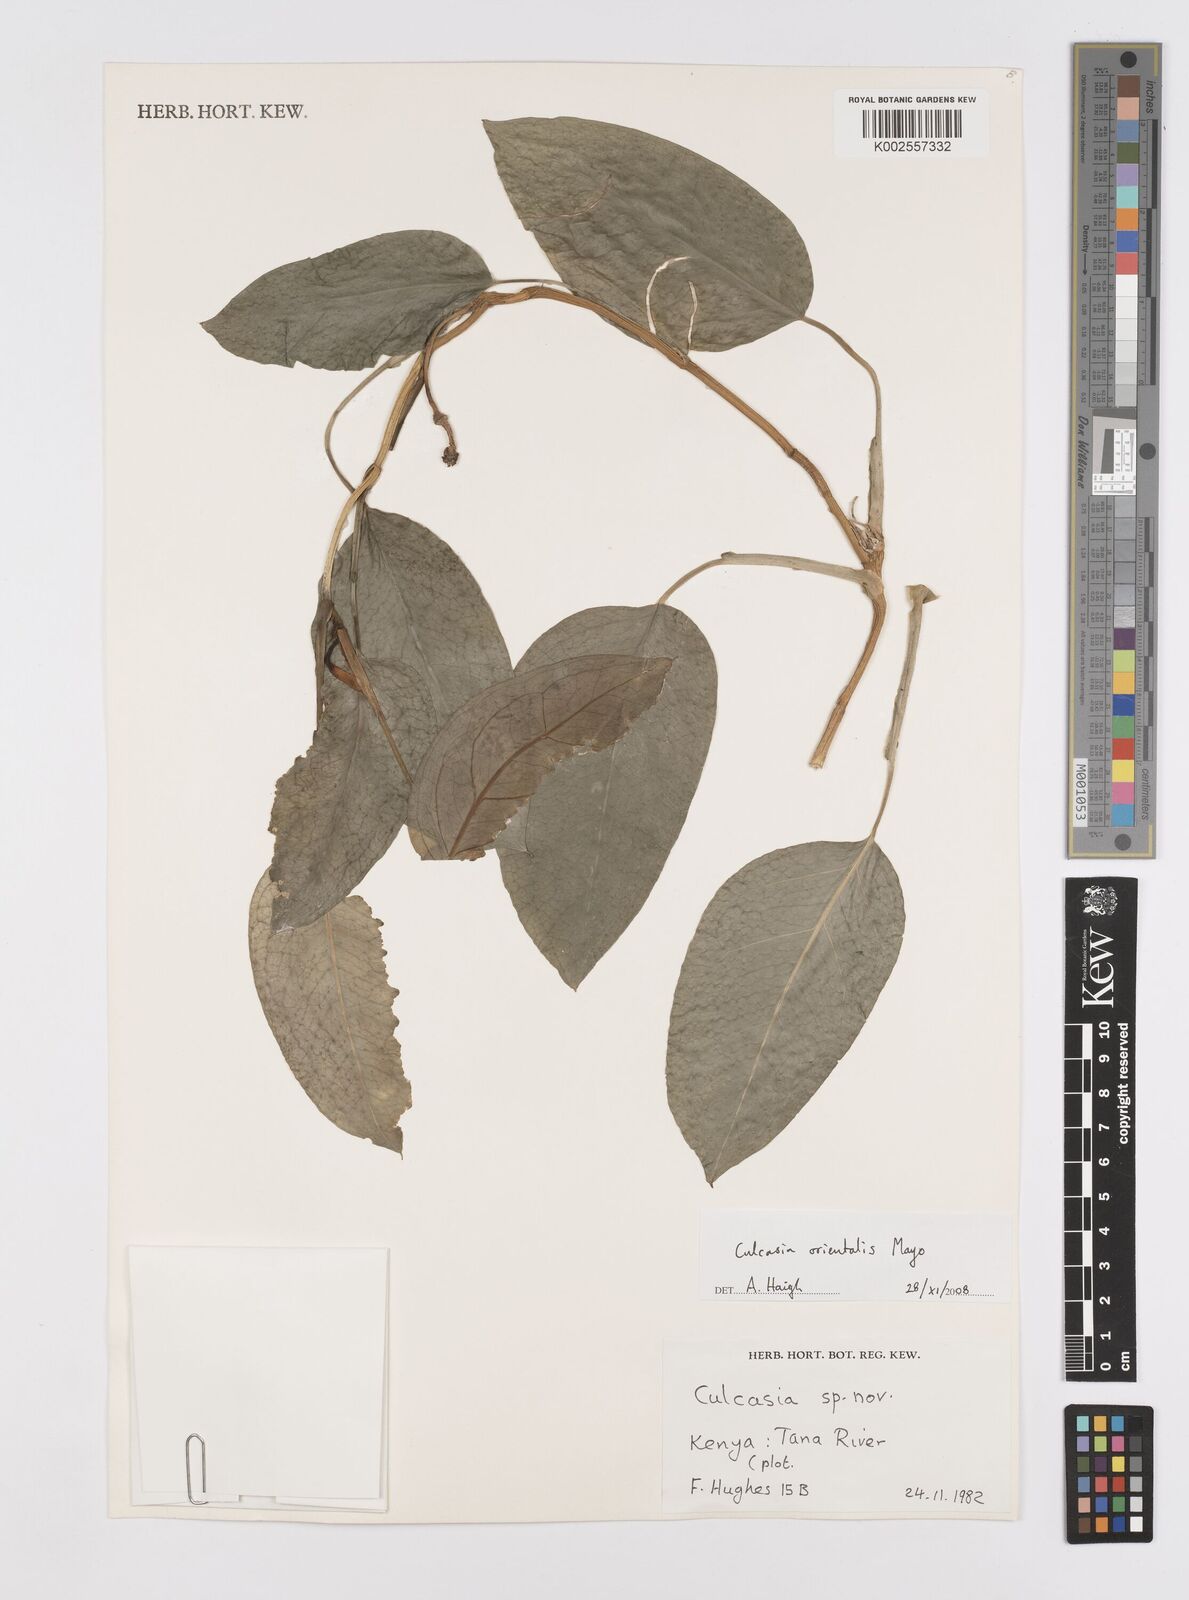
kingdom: Plantae
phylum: Tracheophyta
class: Liliopsida
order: Alismatales
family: Araceae
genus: Culcasia
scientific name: Culcasia orientalis
